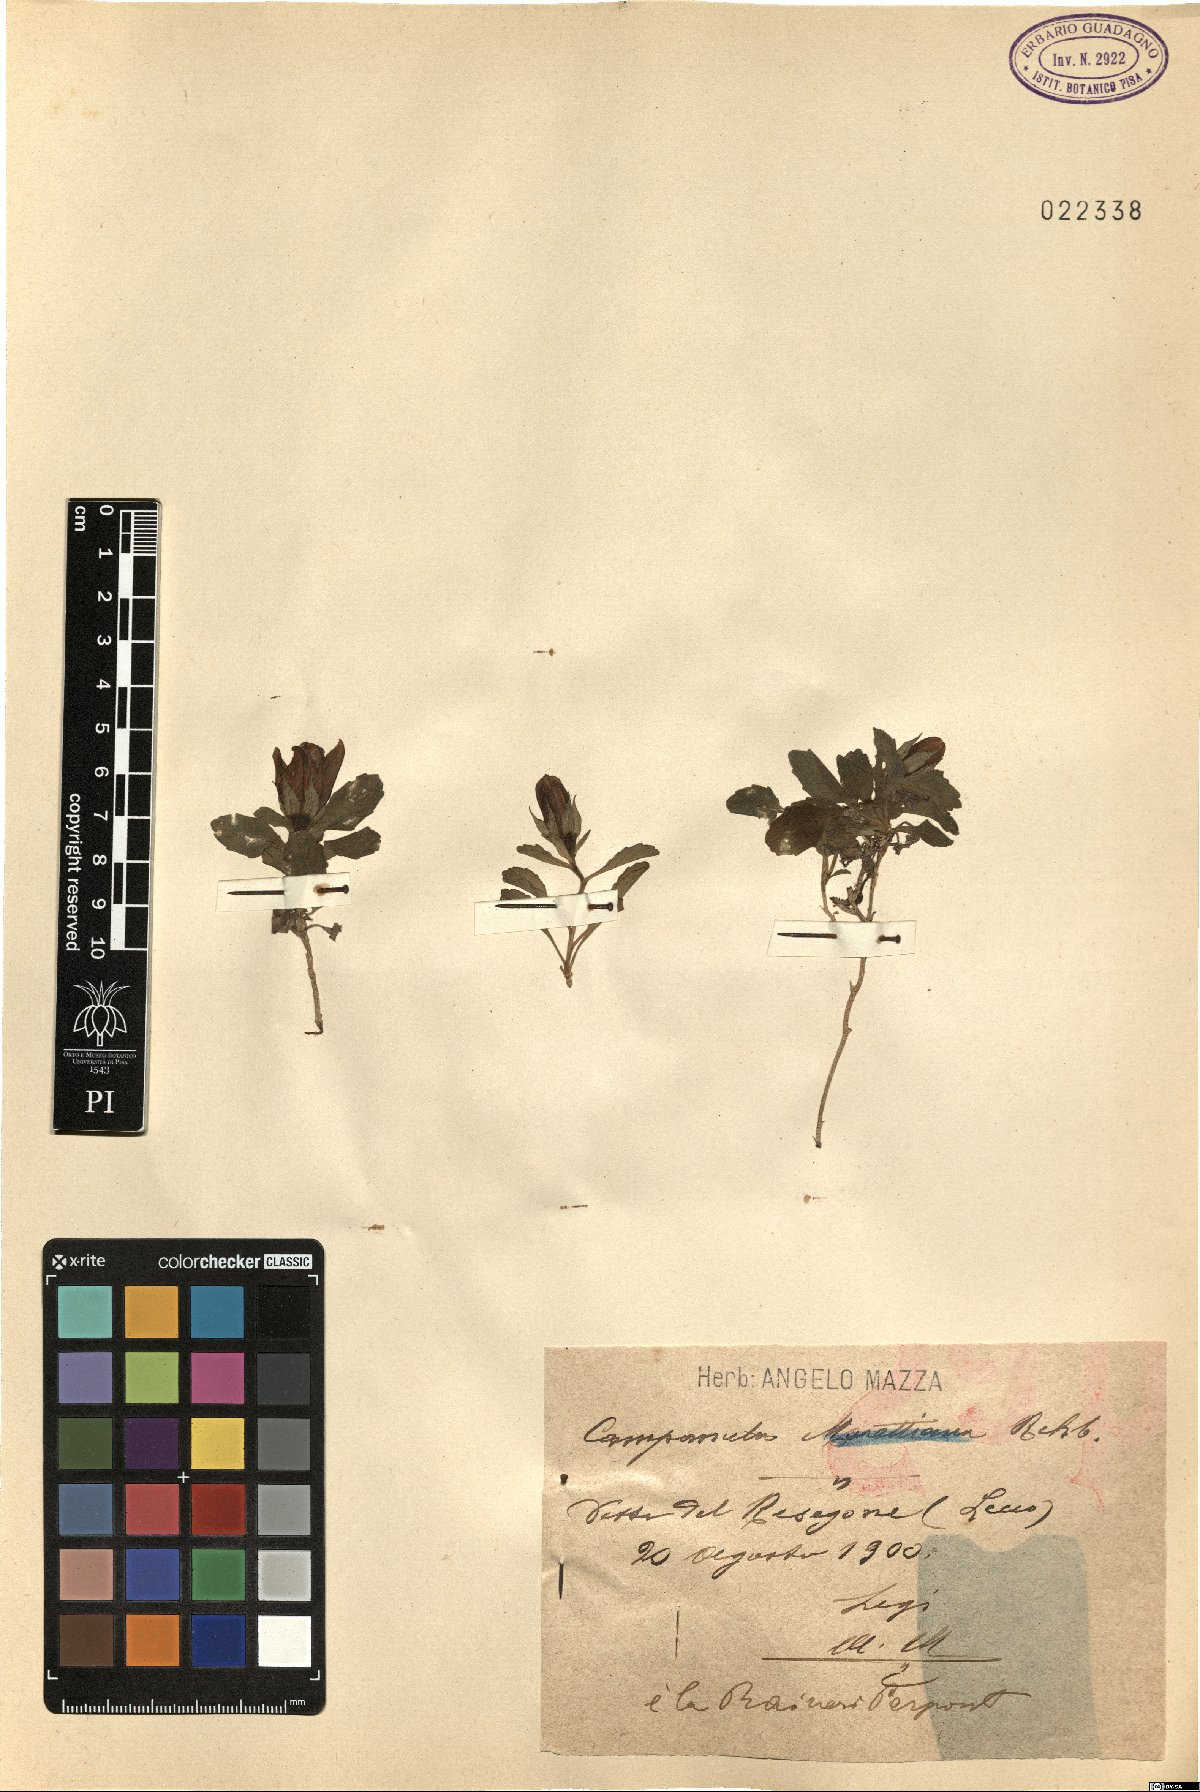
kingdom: Plantae
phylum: Tracheophyta
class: Magnoliopsida
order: Asterales
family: Campanulaceae
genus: Campanula
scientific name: Campanula raineri
